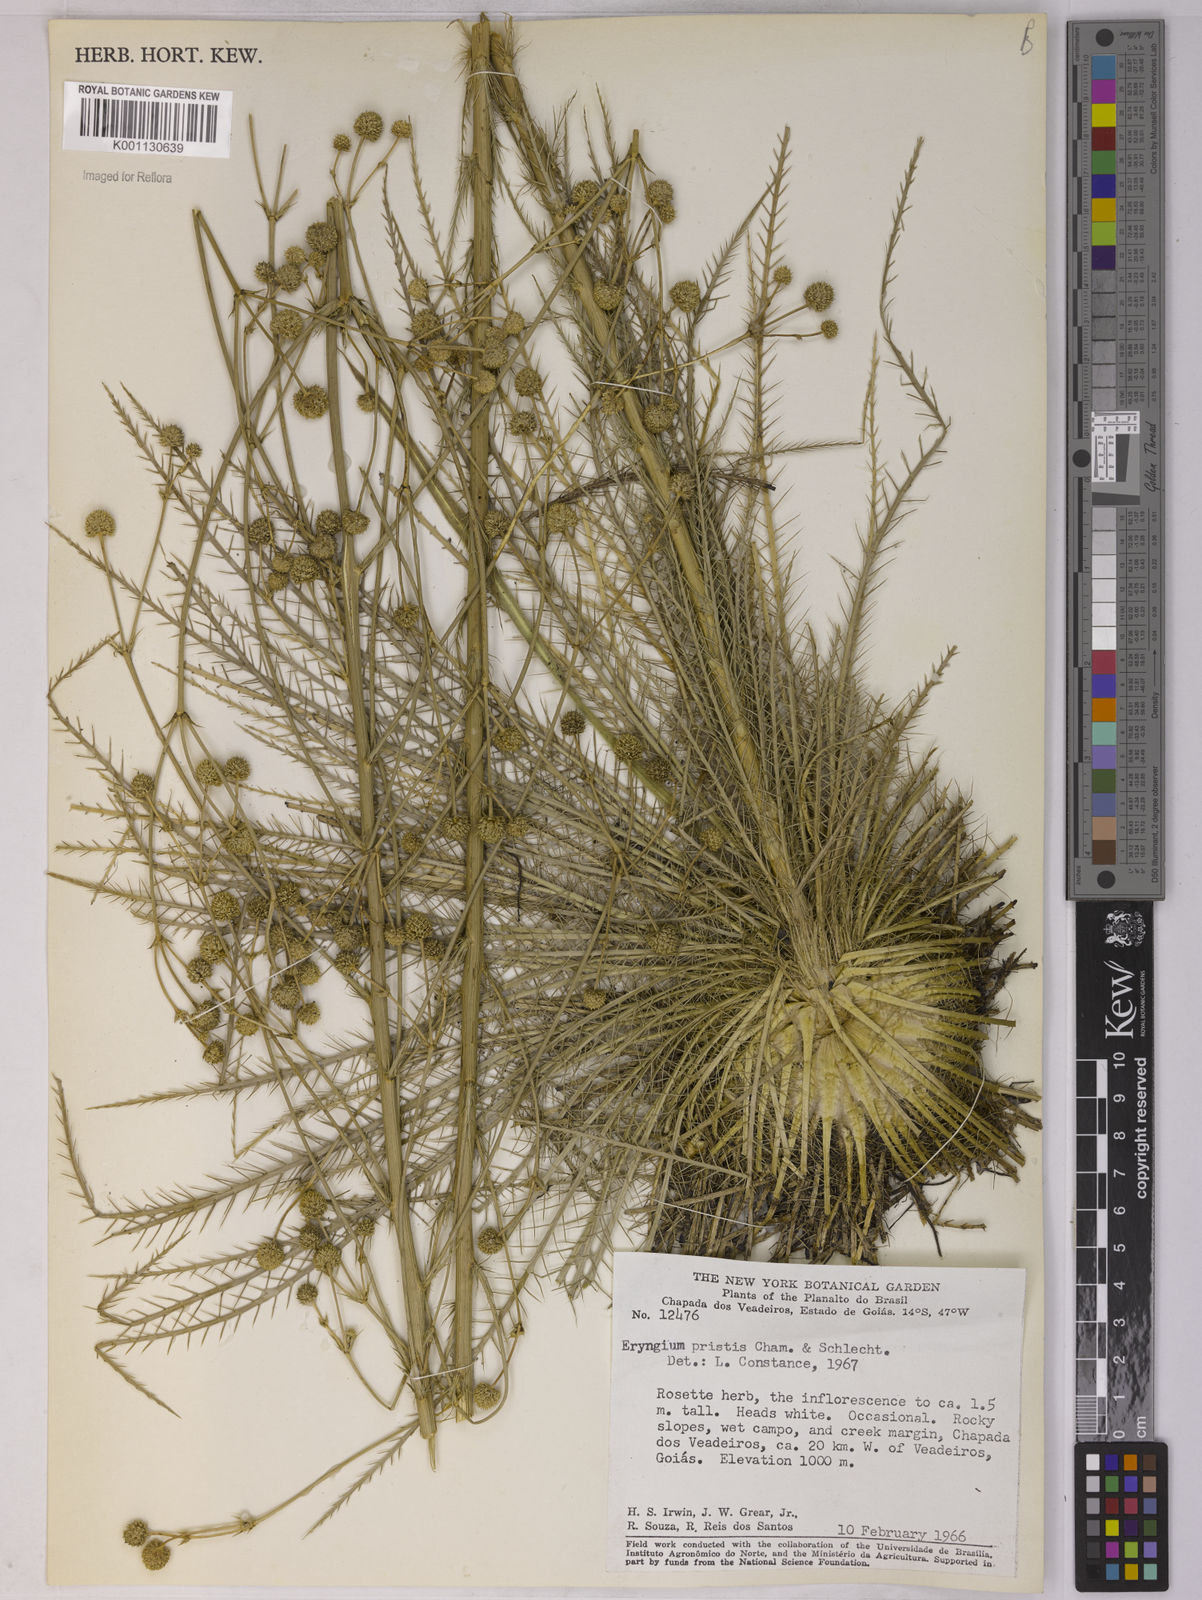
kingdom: Plantae
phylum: Tracheophyta
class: Magnoliopsida
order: Apiales
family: Apiaceae
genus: Eryngium
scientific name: Eryngium pristis
